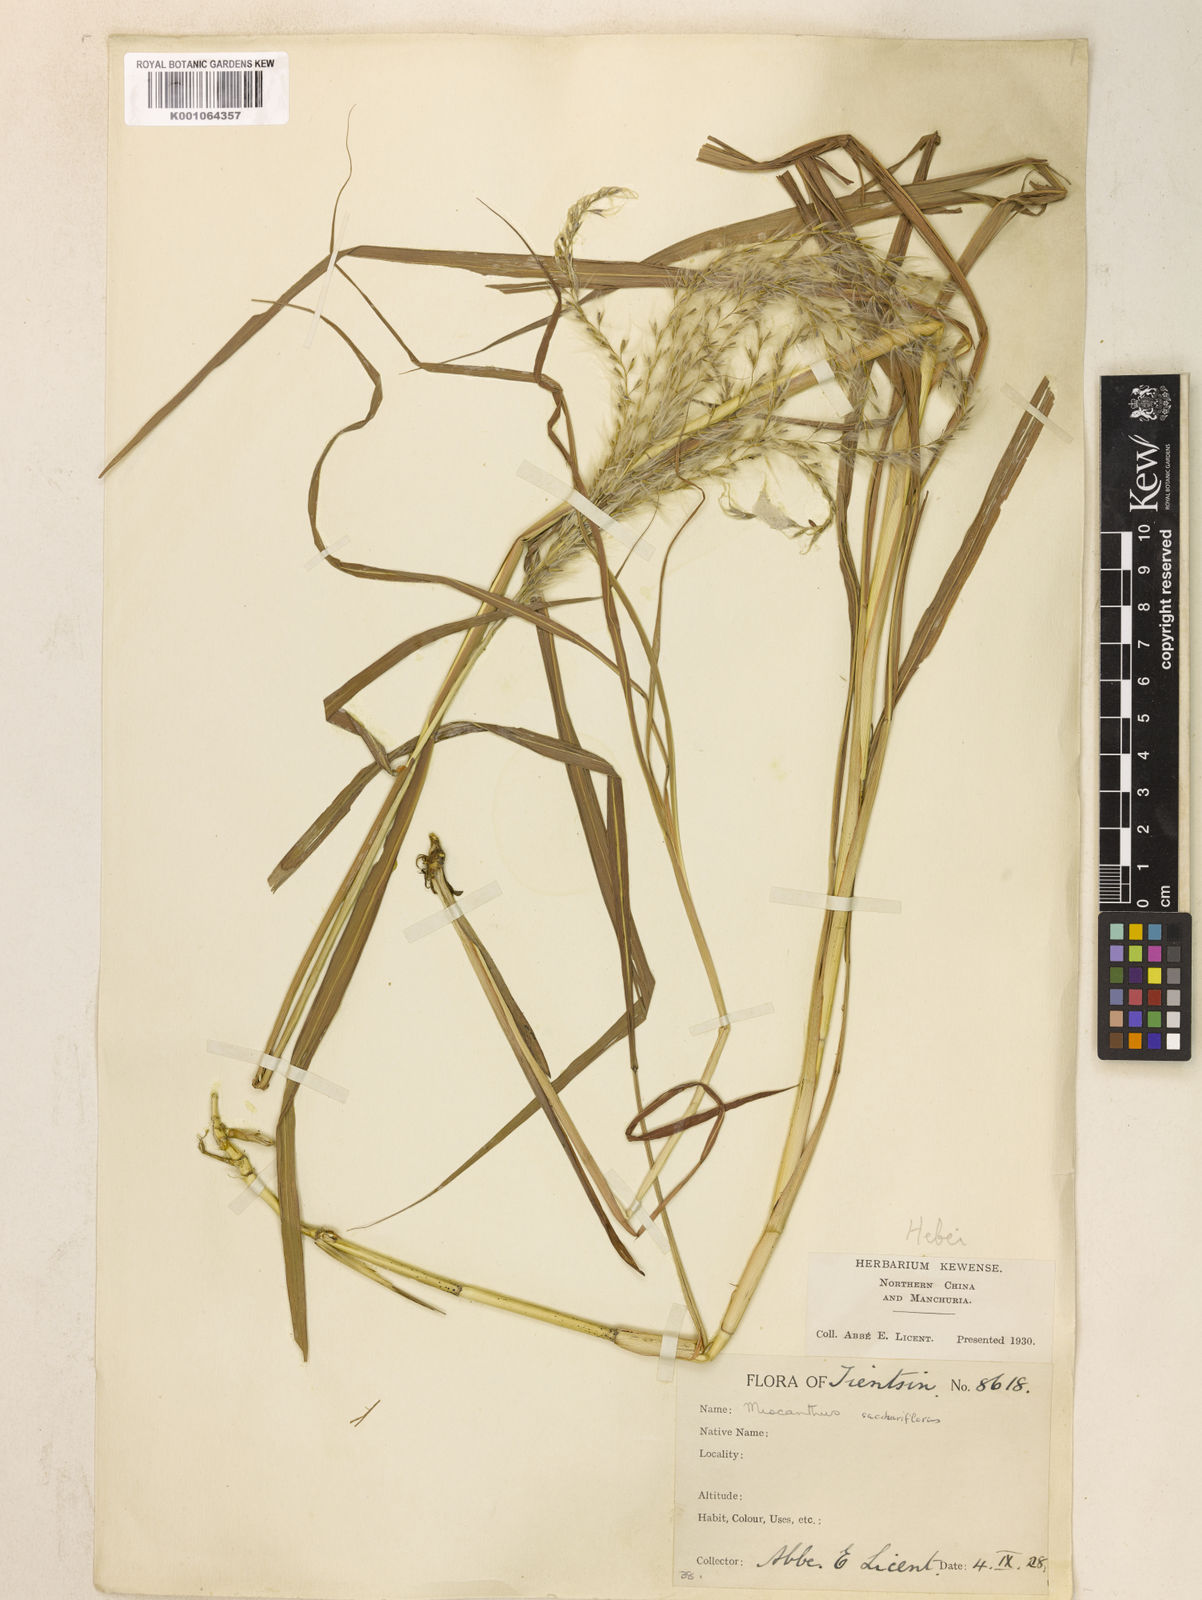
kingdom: Plantae
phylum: Tracheophyta
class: Liliopsida
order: Poales
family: Poaceae
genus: Miscanthus
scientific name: Miscanthus
